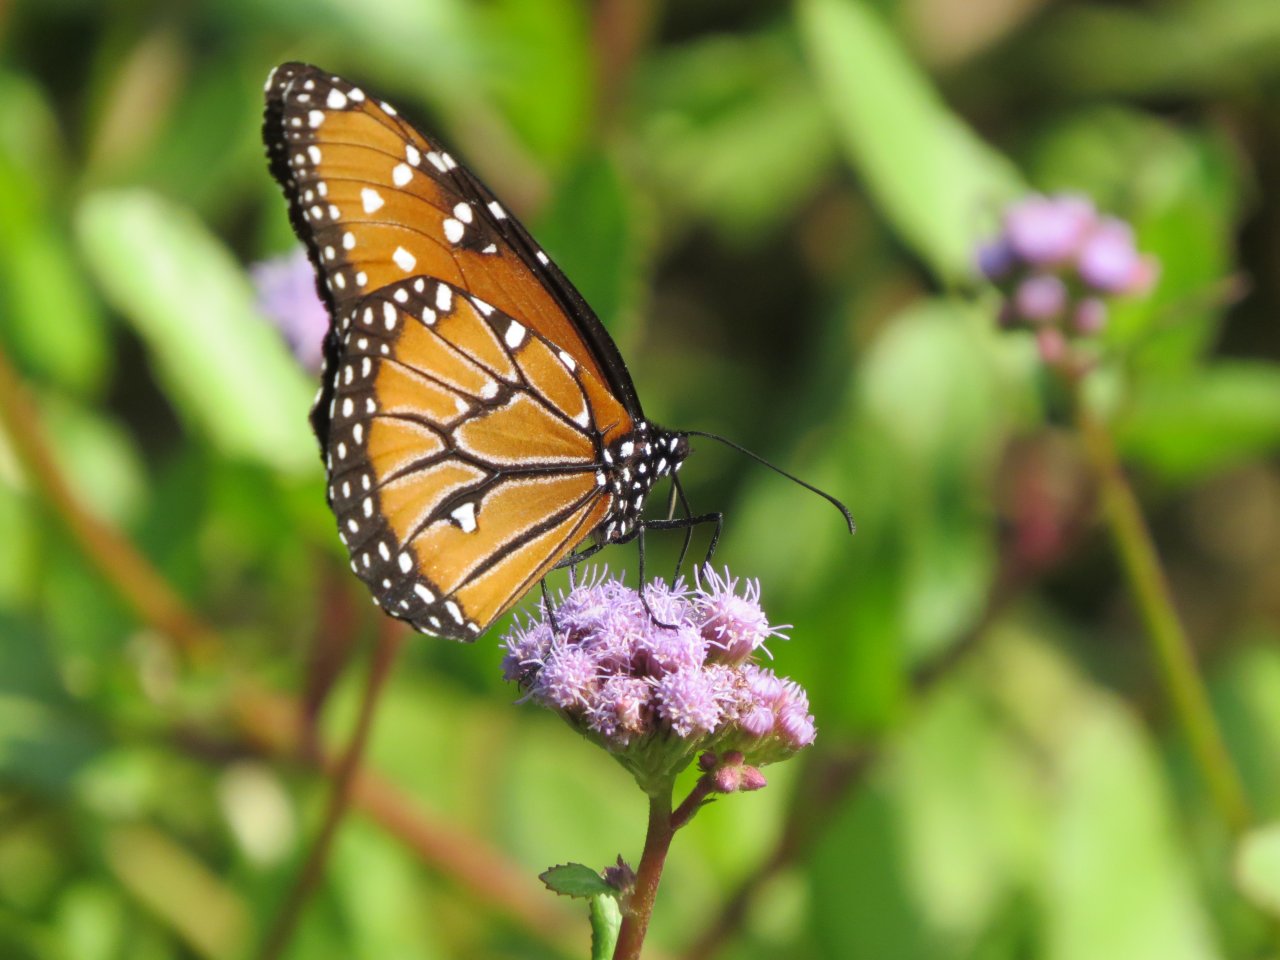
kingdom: Animalia
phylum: Arthropoda
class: Insecta
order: Lepidoptera
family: Nymphalidae
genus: Danaus
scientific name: Danaus gilippus
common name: Queen
